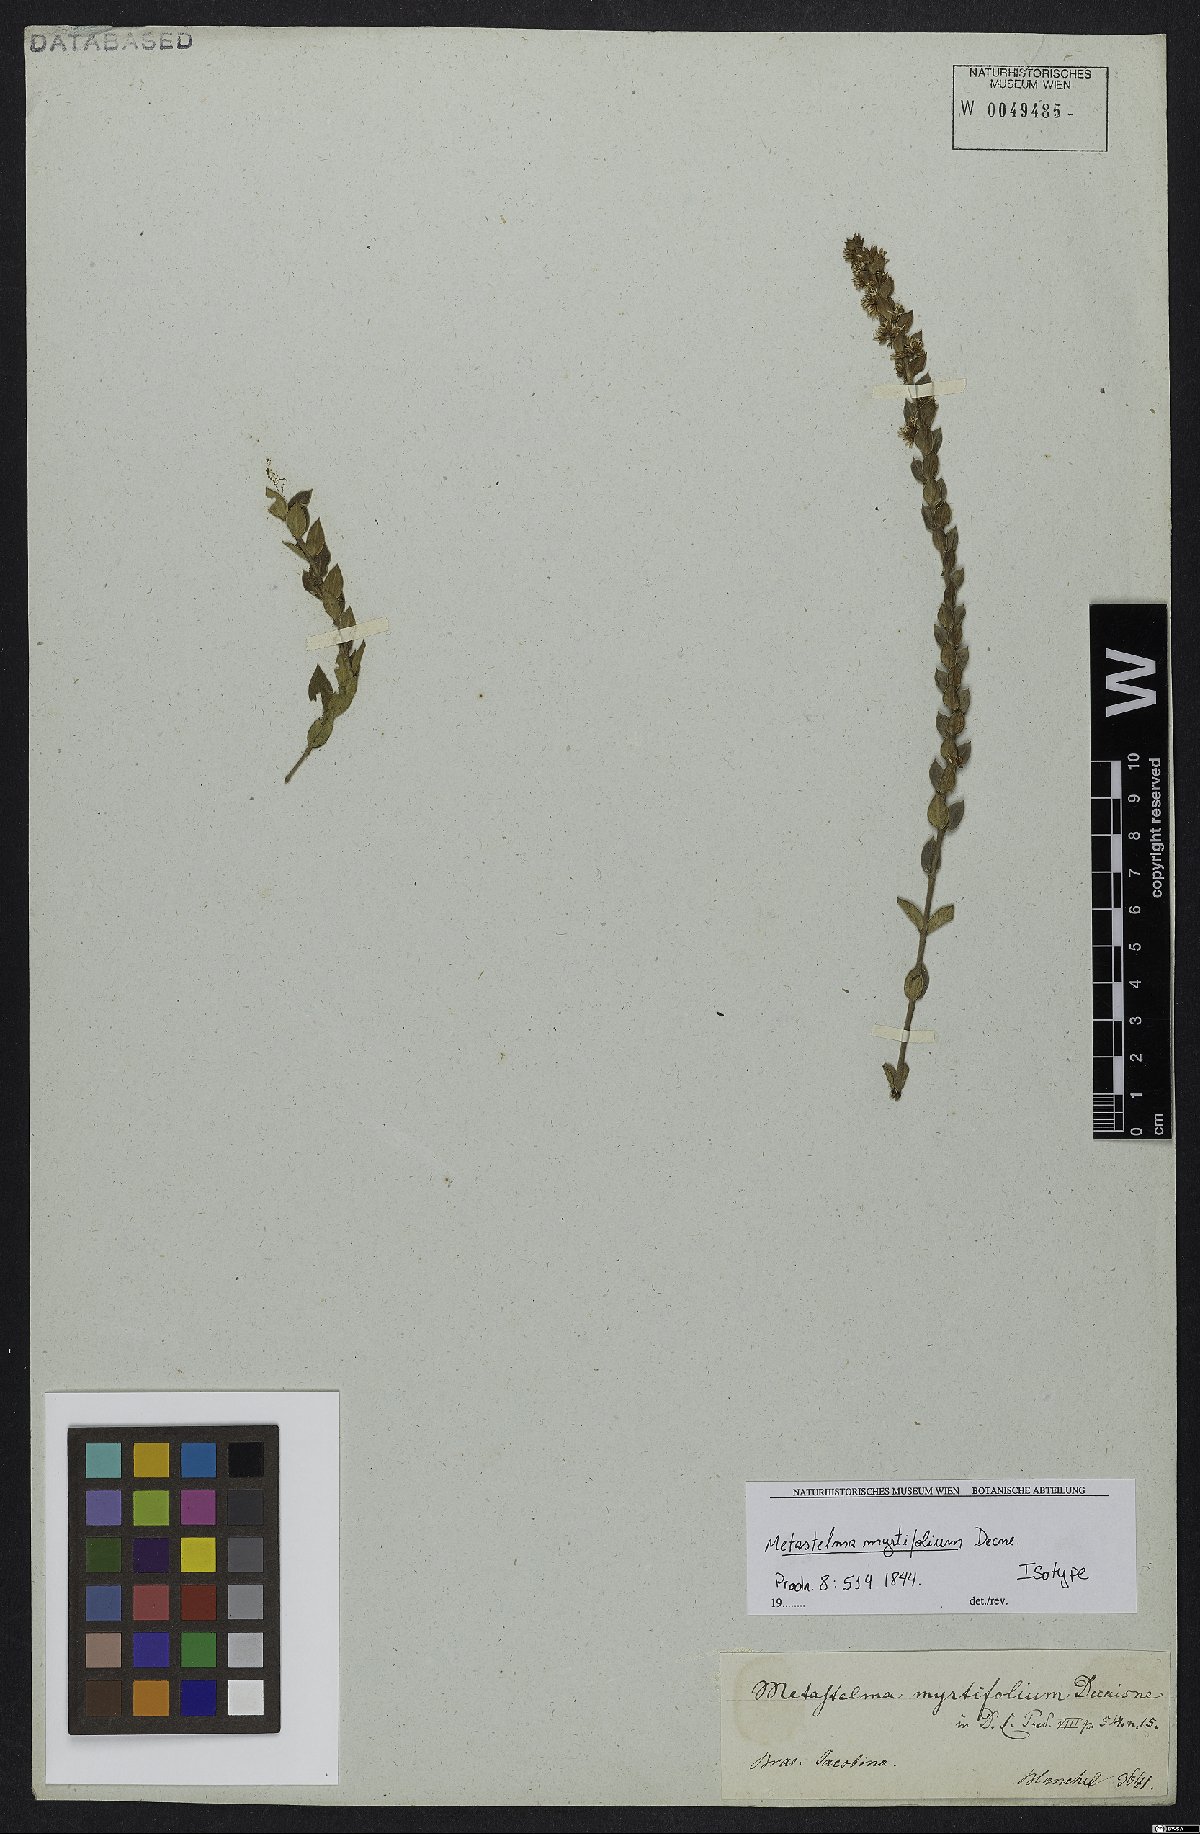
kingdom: Plantae
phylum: Tracheophyta
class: Magnoliopsida
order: Gentianales
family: Apocynaceae
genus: Metastelma
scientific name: Metastelma myrtifolium
